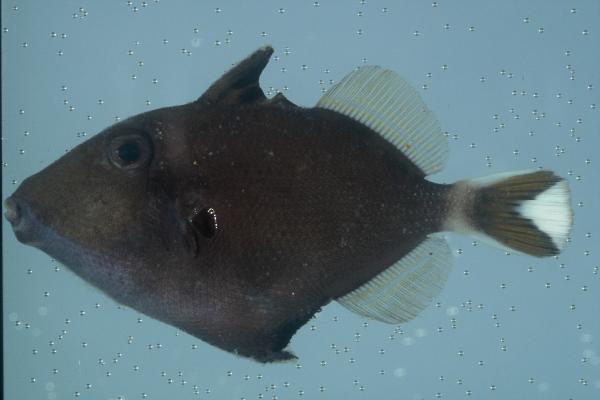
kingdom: Animalia
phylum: Chordata
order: Tetraodontiformes
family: Balistidae
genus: Sufflamen
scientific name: Sufflamen chrysopterum
